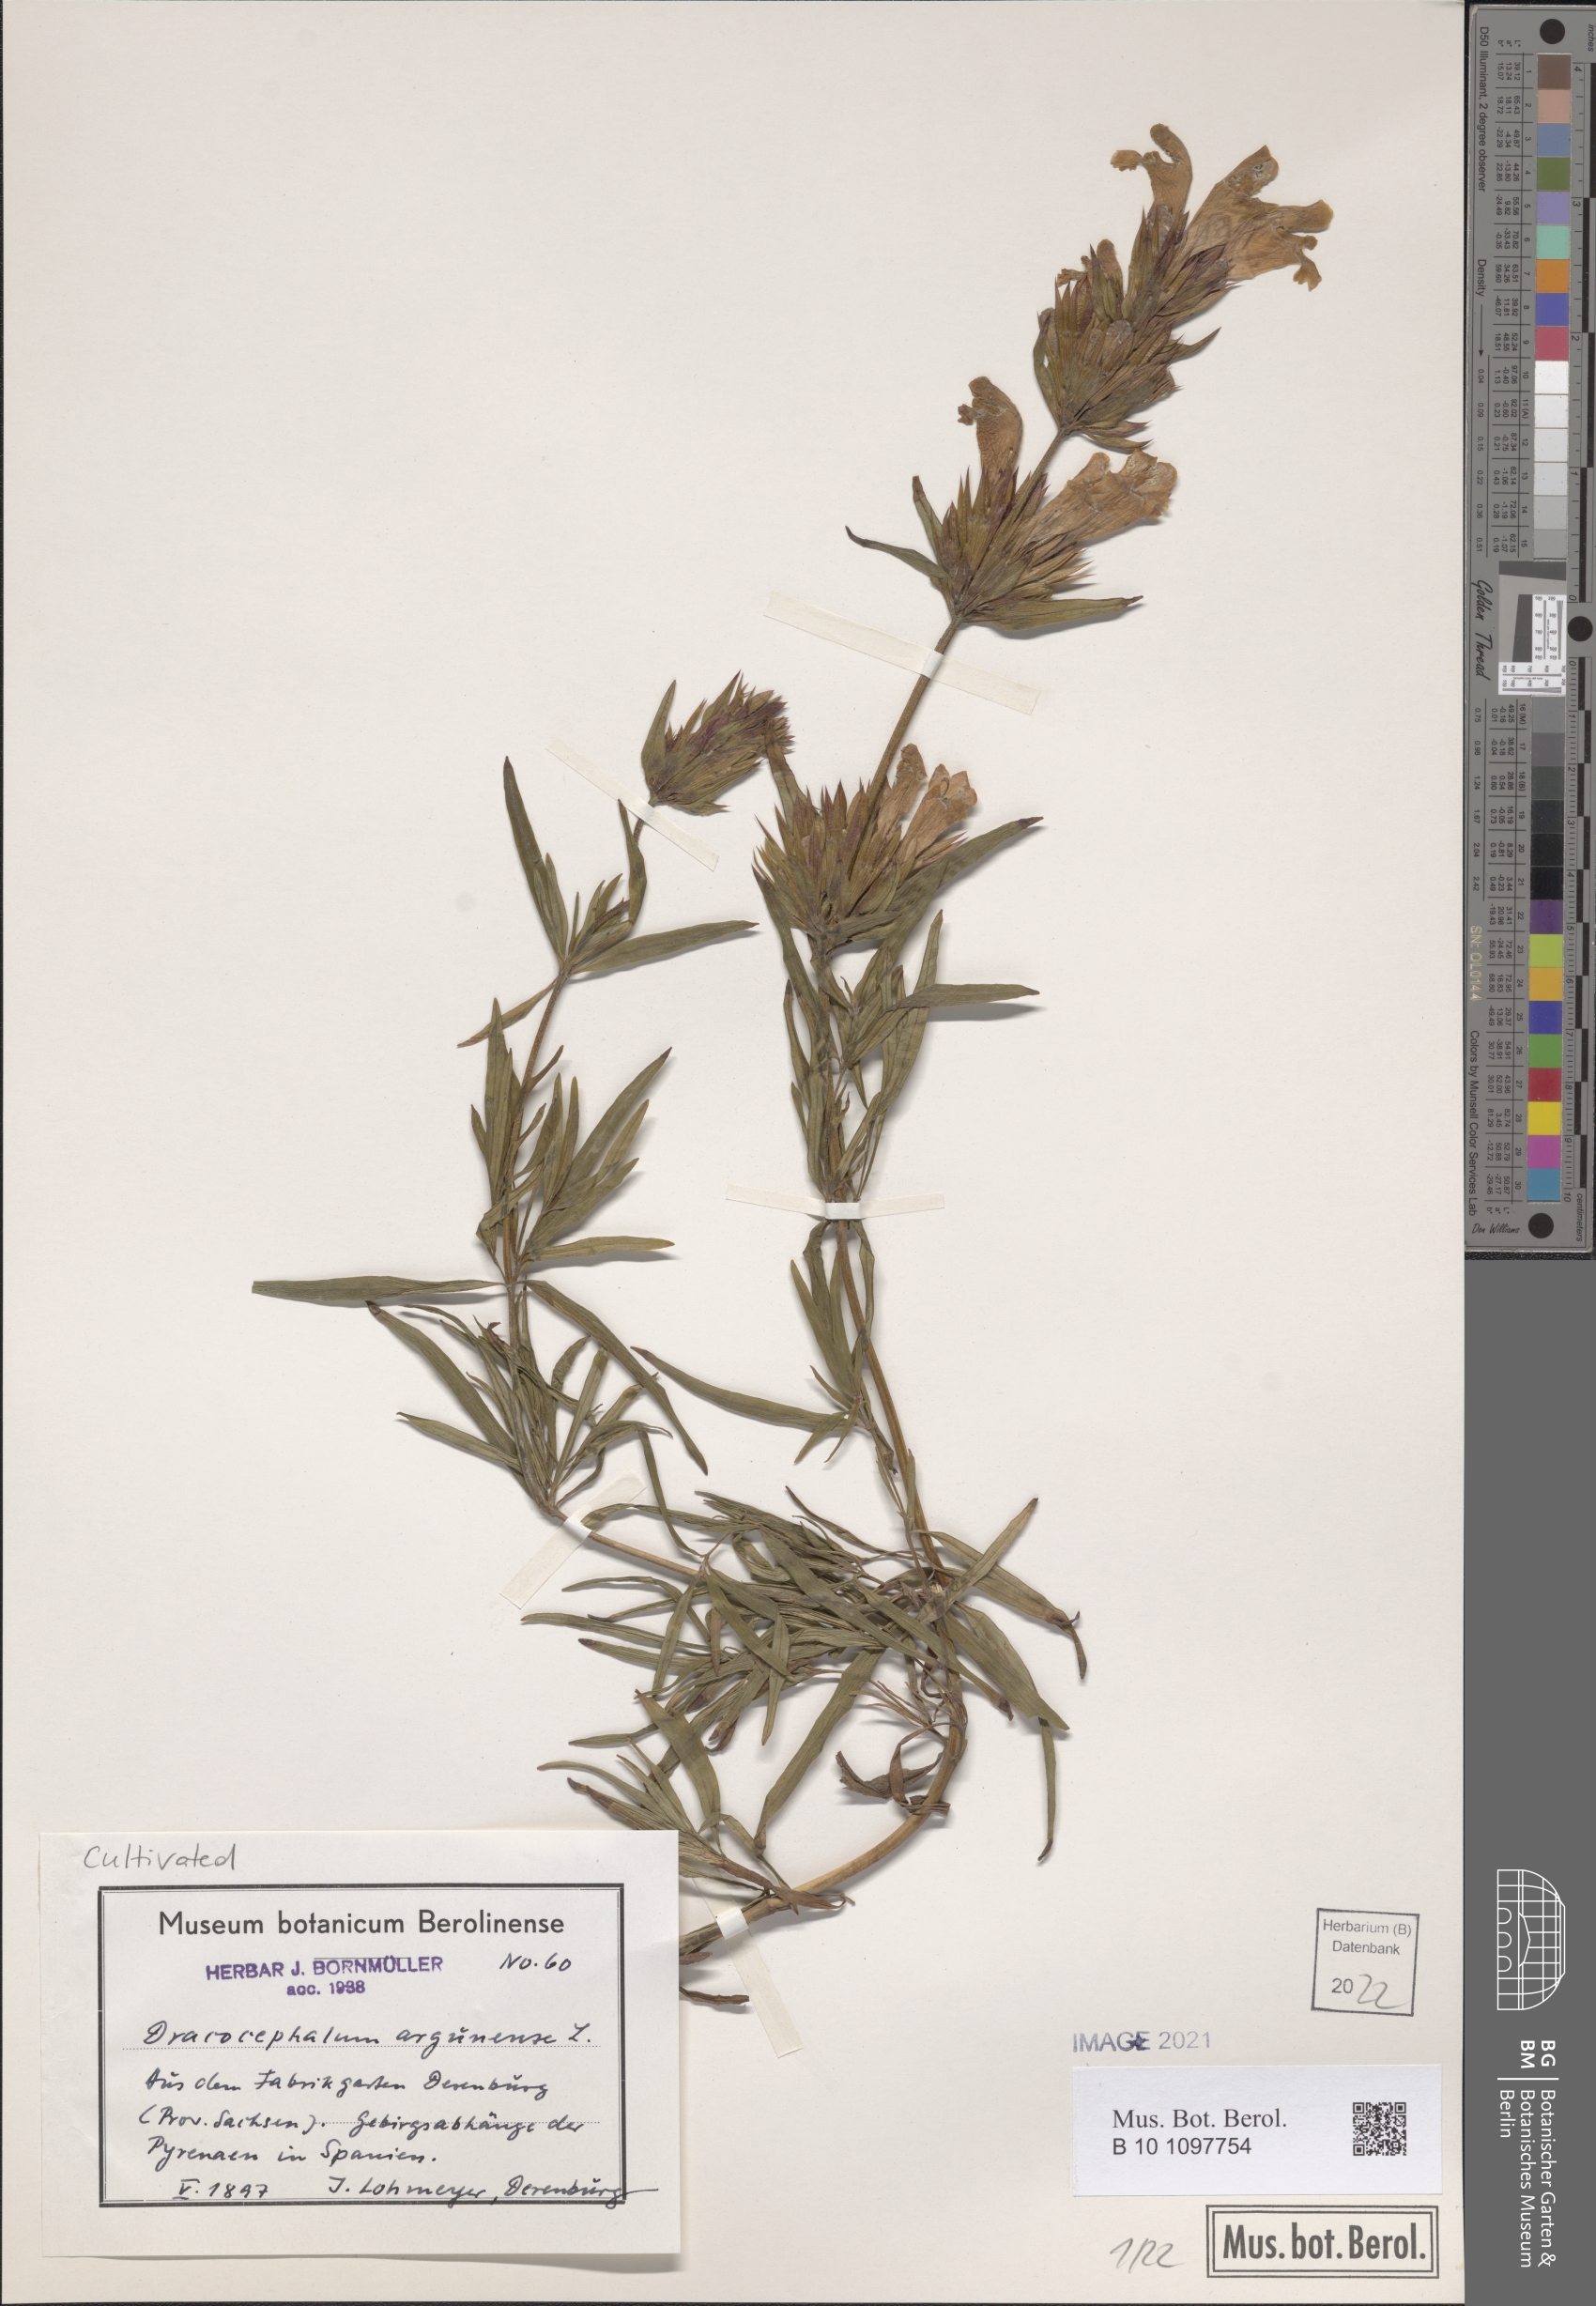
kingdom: Plantae
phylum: Tracheophyta
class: Magnoliopsida
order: Lamiales
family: Lamiaceae
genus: Dracocephalum
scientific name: Dracocephalum argunense
